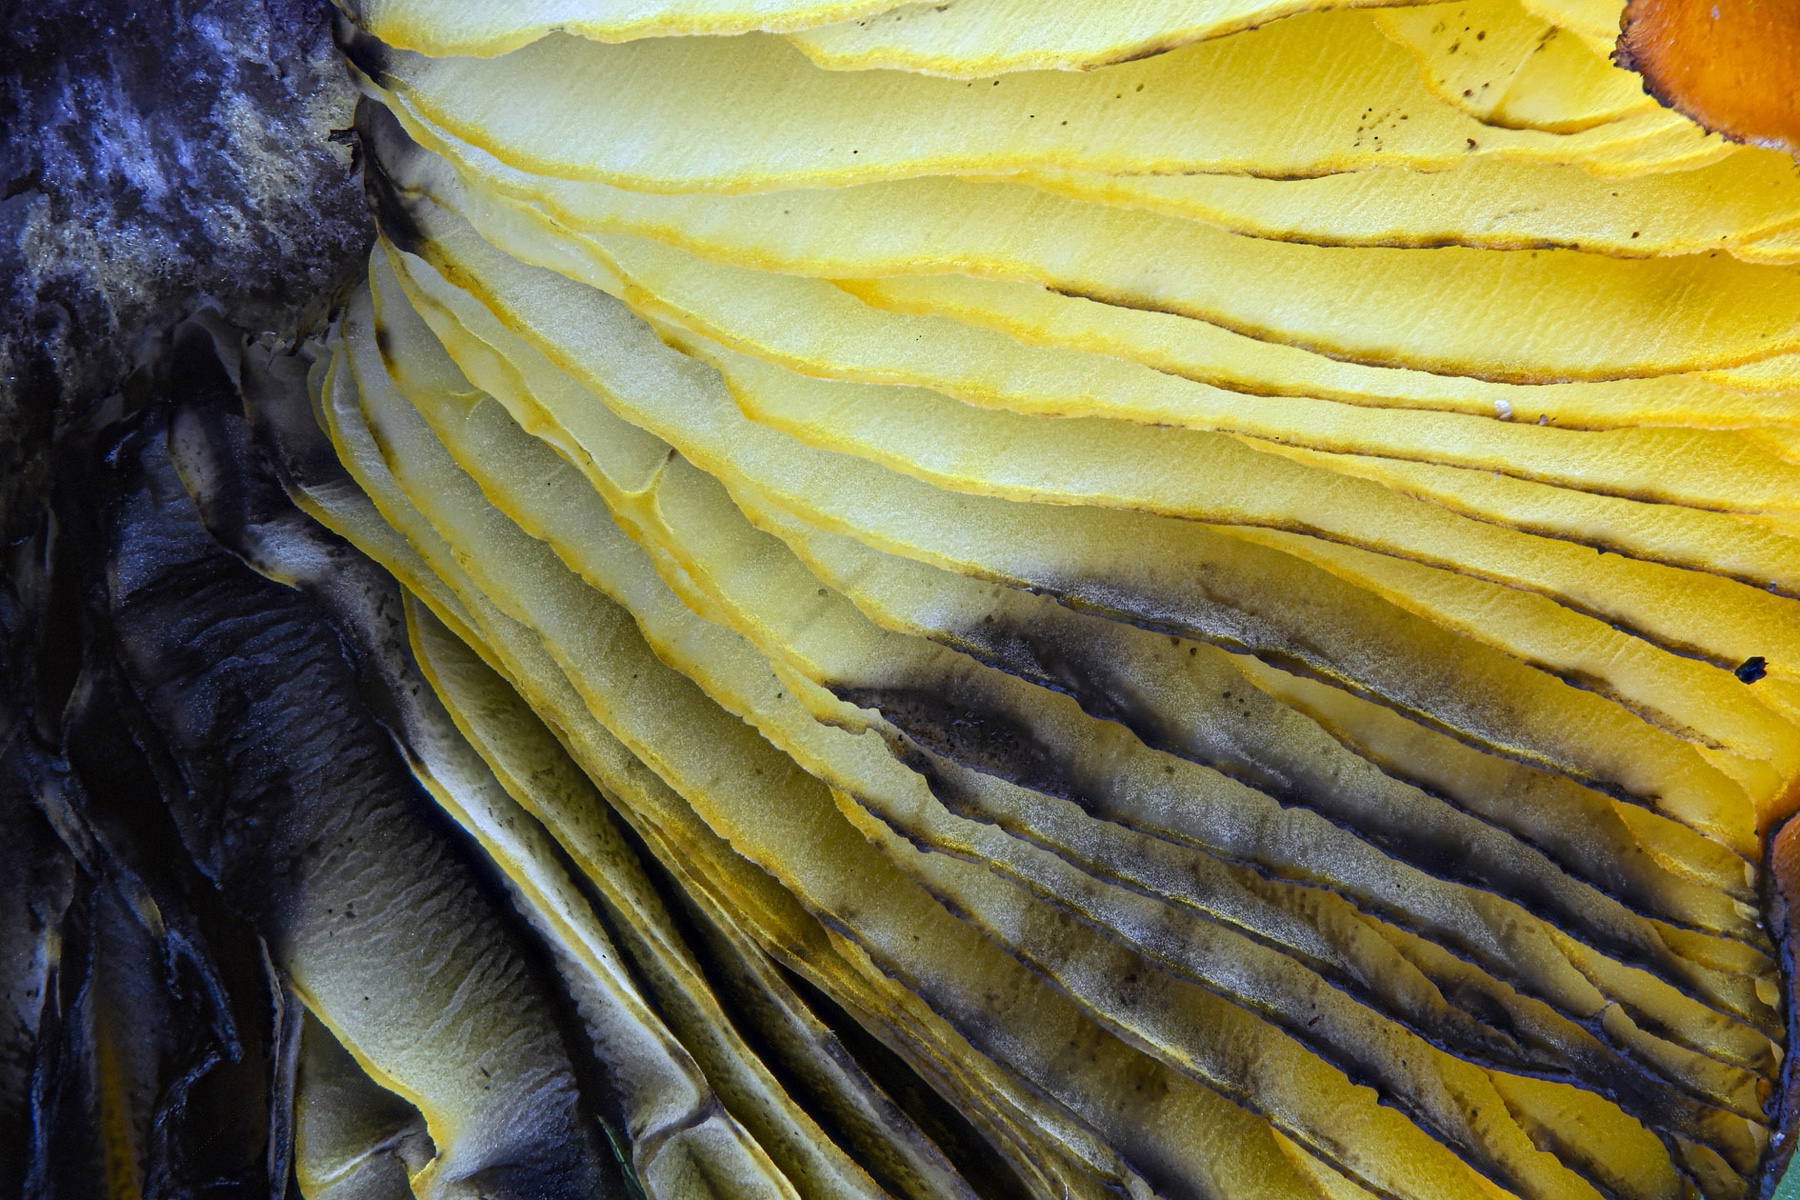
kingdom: Fungi
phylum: Basidiomycota
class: Agaricomycetes
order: Agaricales
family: Hygrophoraceae
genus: Hygrocybe
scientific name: Hygrocybe conica
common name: kegle-vokshat
